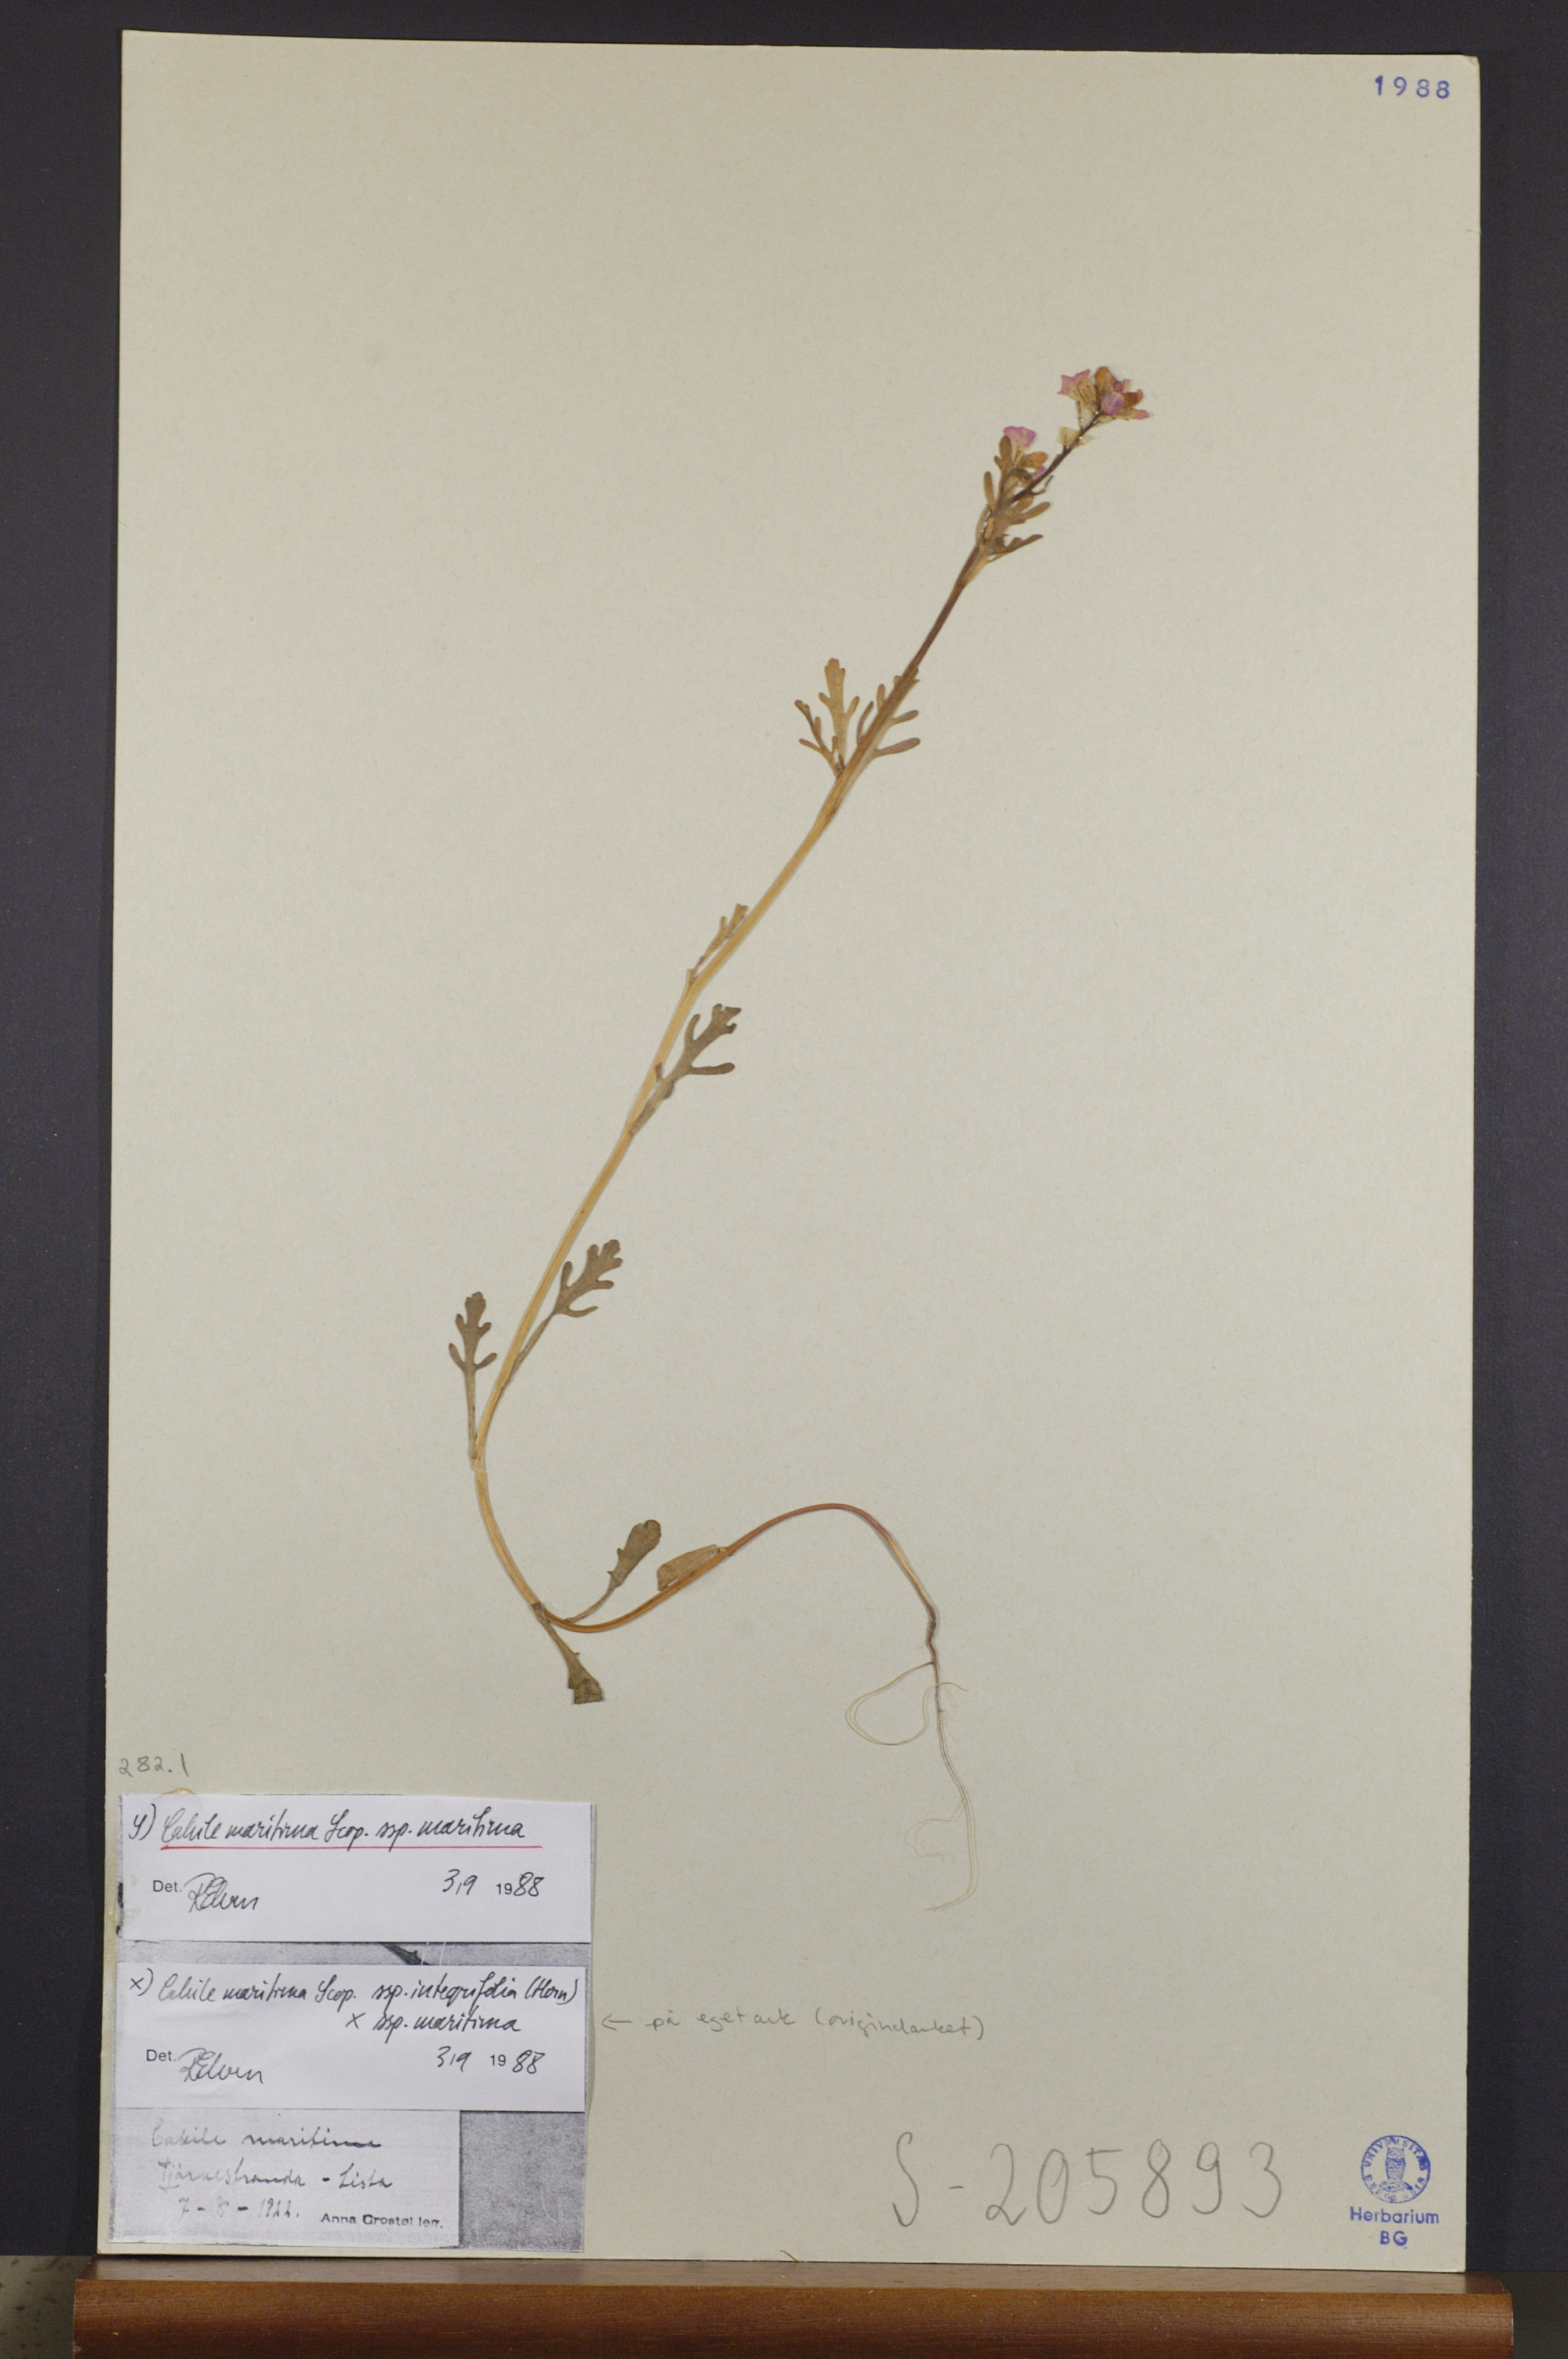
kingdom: Plantae
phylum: Tracheophyta
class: Magnoliopsida
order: Brassicales
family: Brassicaceae
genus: Cakile
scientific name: Cakile maritima
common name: Sea rocket
